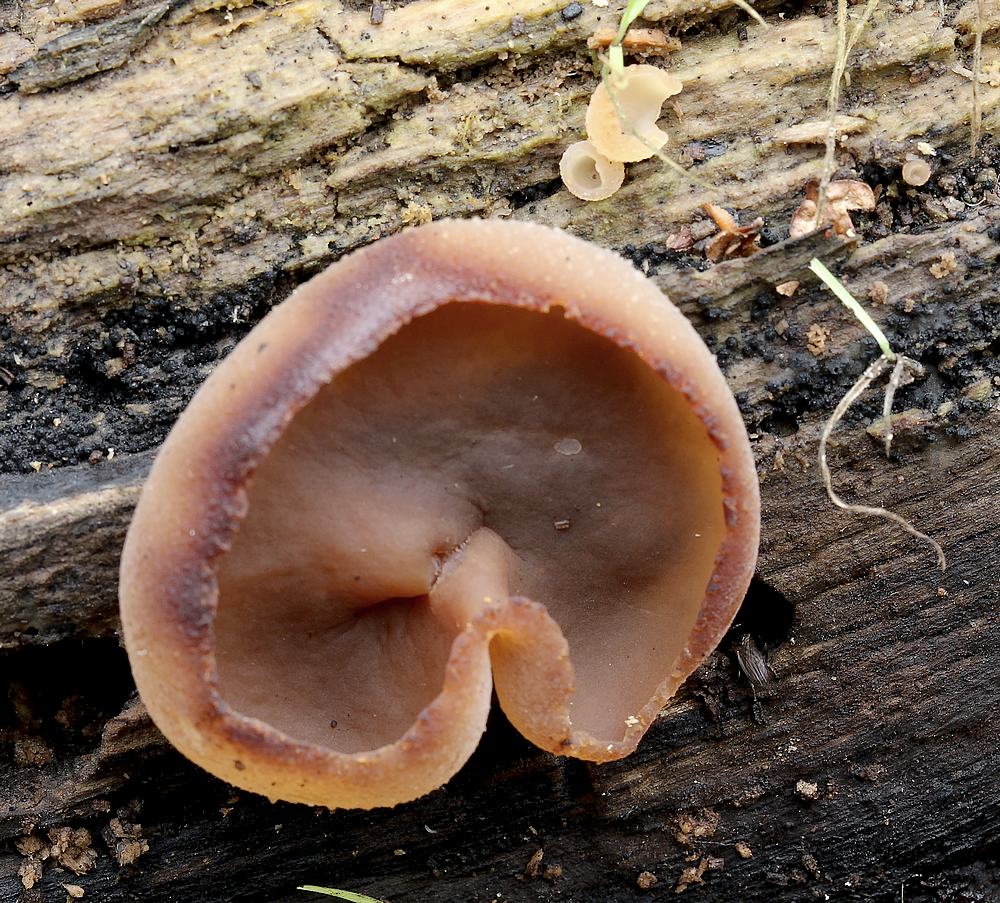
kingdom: Fungi
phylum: Ascomycota
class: Pezizomycetes
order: Pezizales
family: Pezizaceae
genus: Peziza
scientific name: Peziza varia
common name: Ved-bægersvamp
